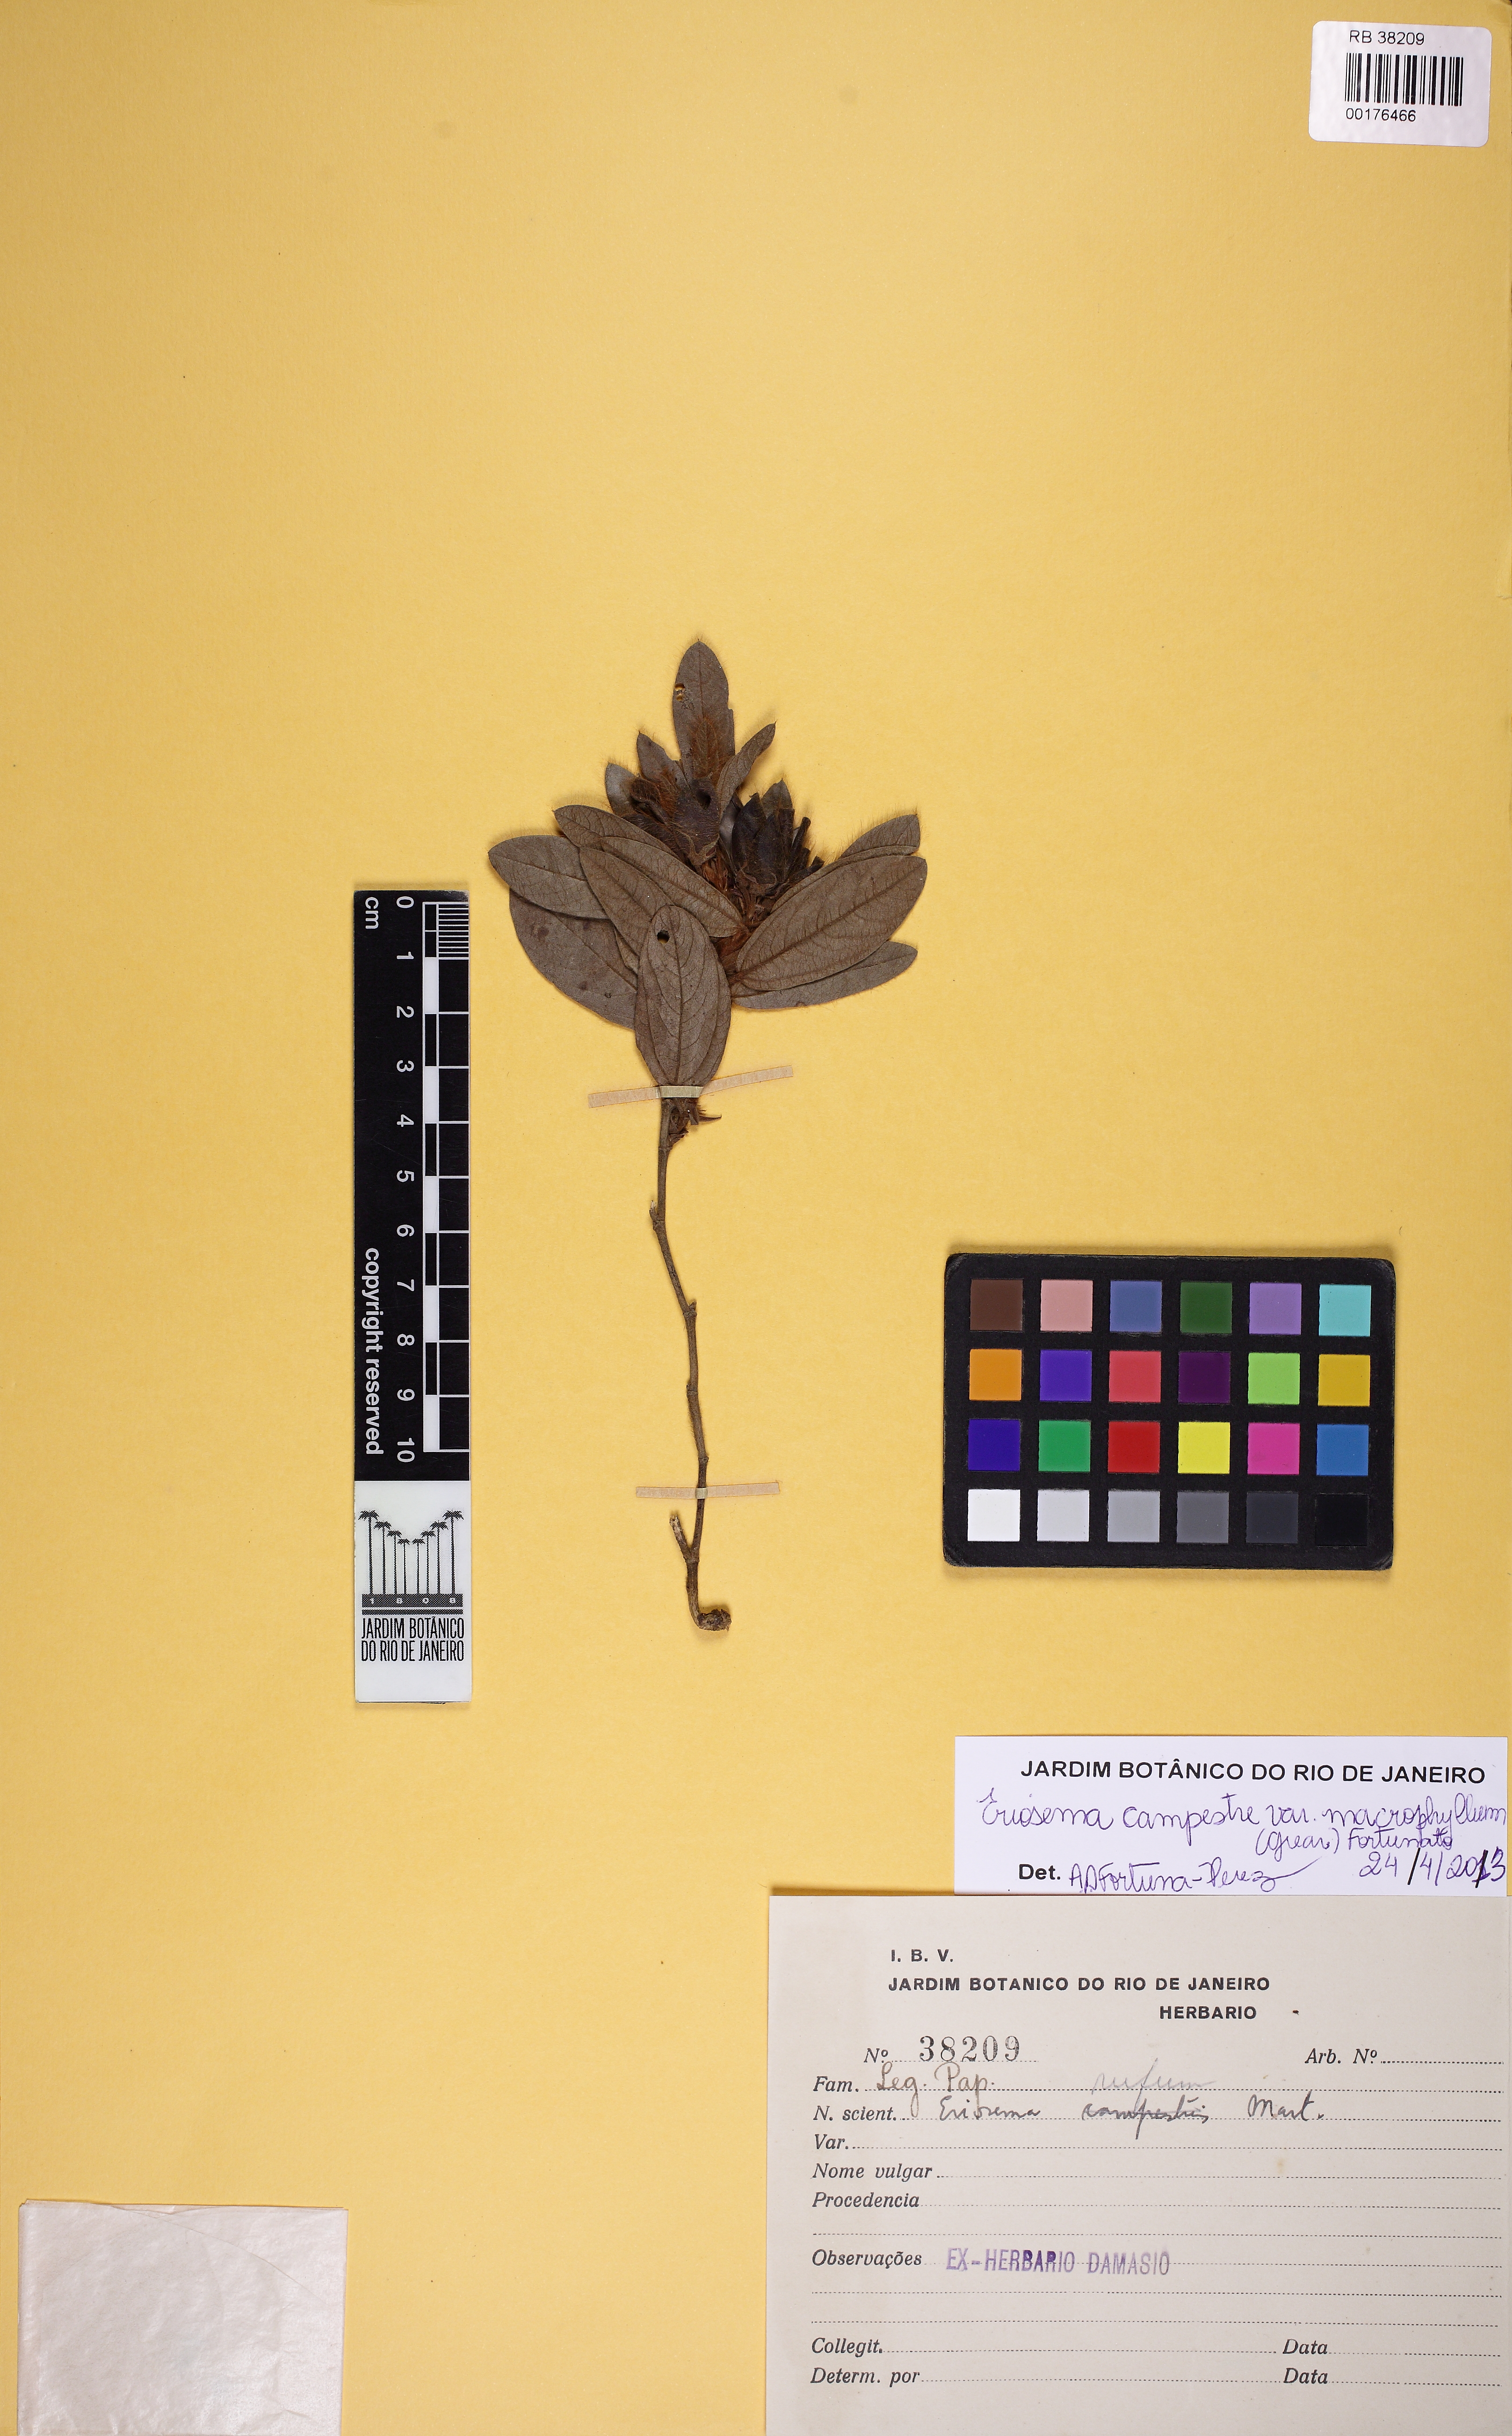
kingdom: Plantae
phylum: Tracheophyta
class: Magnoliopsida
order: Fabales
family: Fabaceae
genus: Eriosema
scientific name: Eriosema campestre
